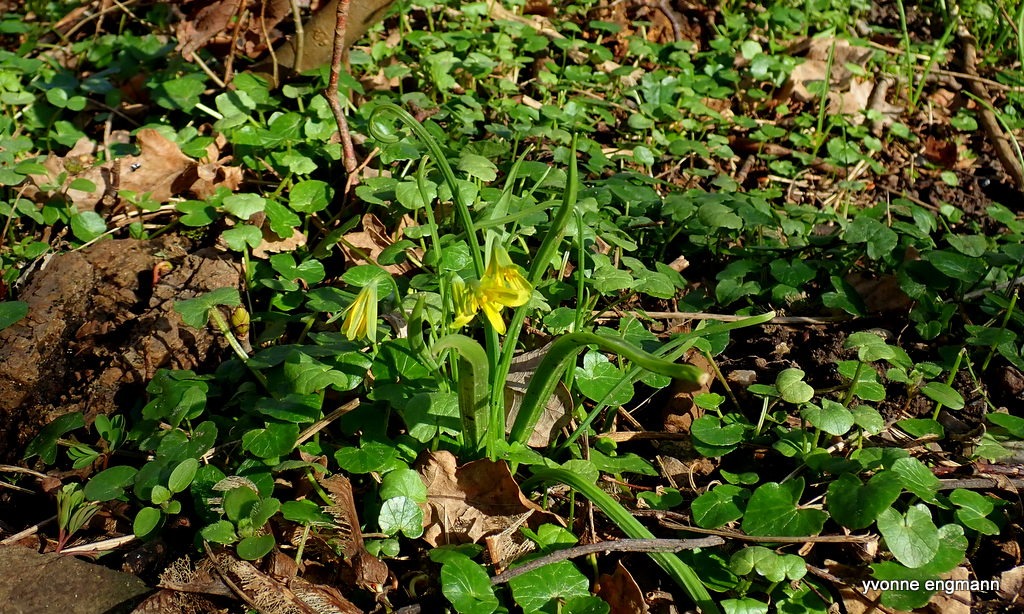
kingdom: Plantae
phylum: Tracheophyta
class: Liliopsida
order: Liliales
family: Liliaceae
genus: Gagea
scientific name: Gagea lutea
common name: Almindelig guldstjerne
